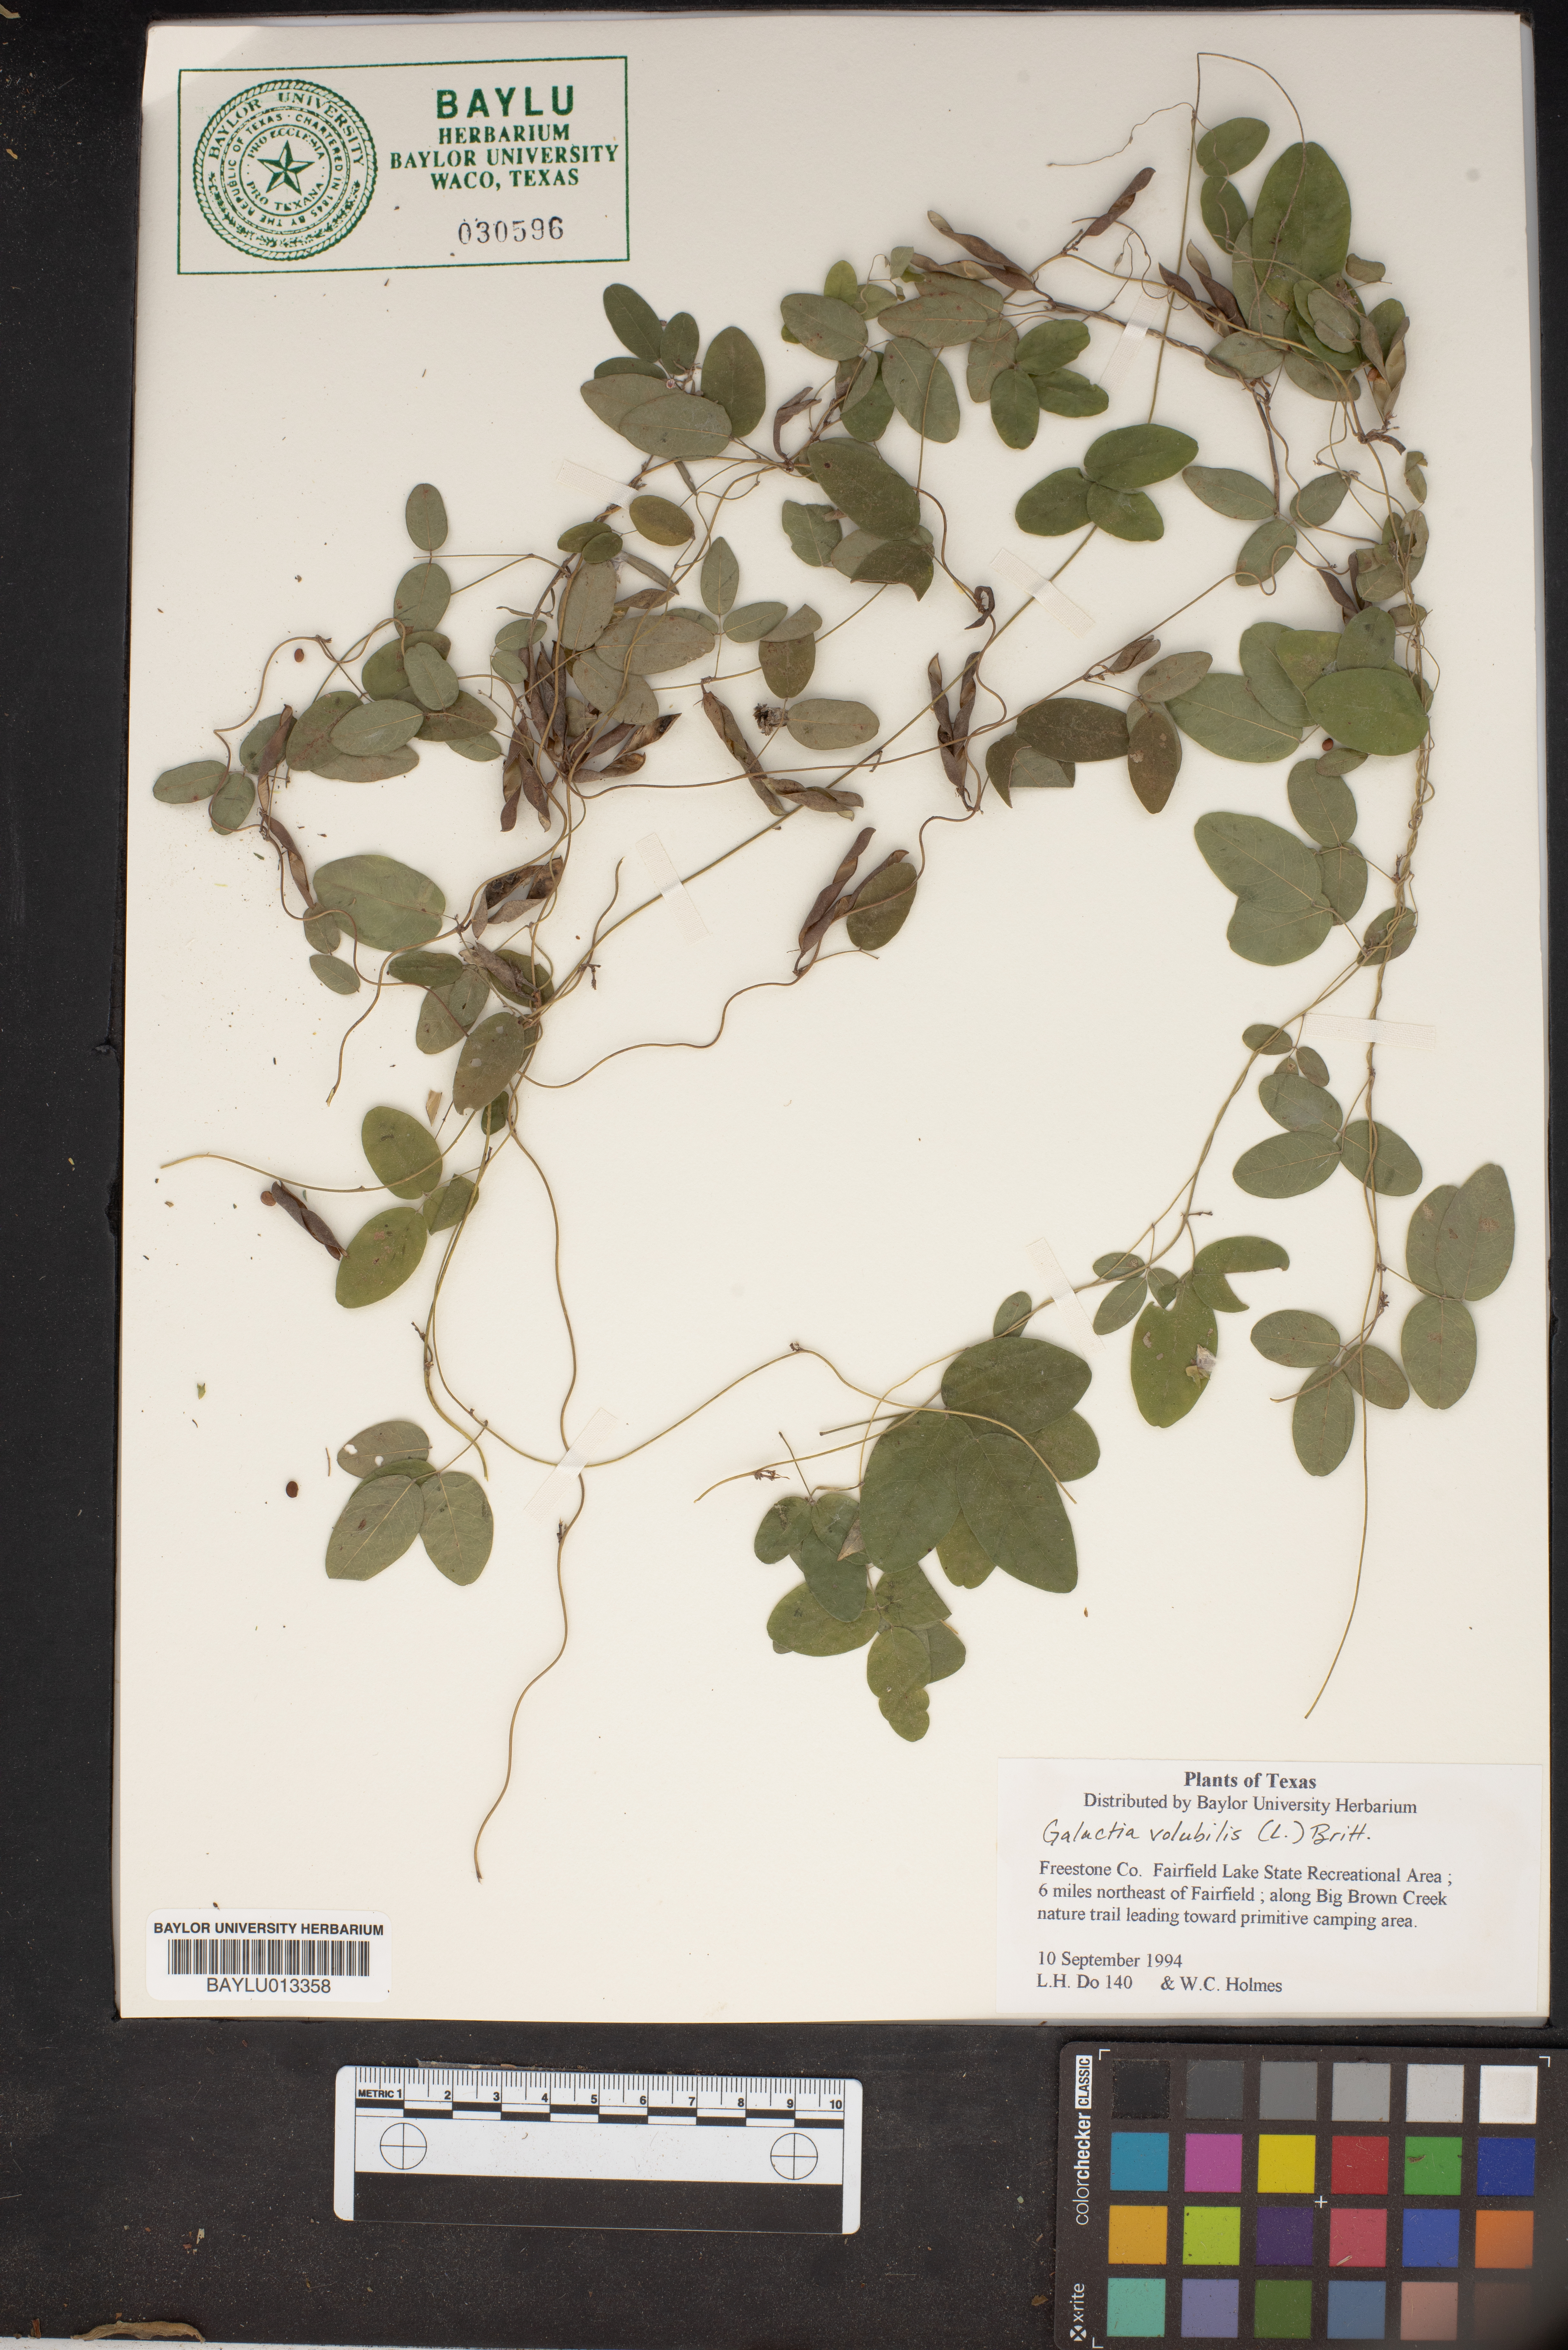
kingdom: Plantae
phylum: Tracheophyta
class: Magnoliopsida
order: Fabales
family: Fabaceae
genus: Galactia
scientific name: Galactia volubilis
